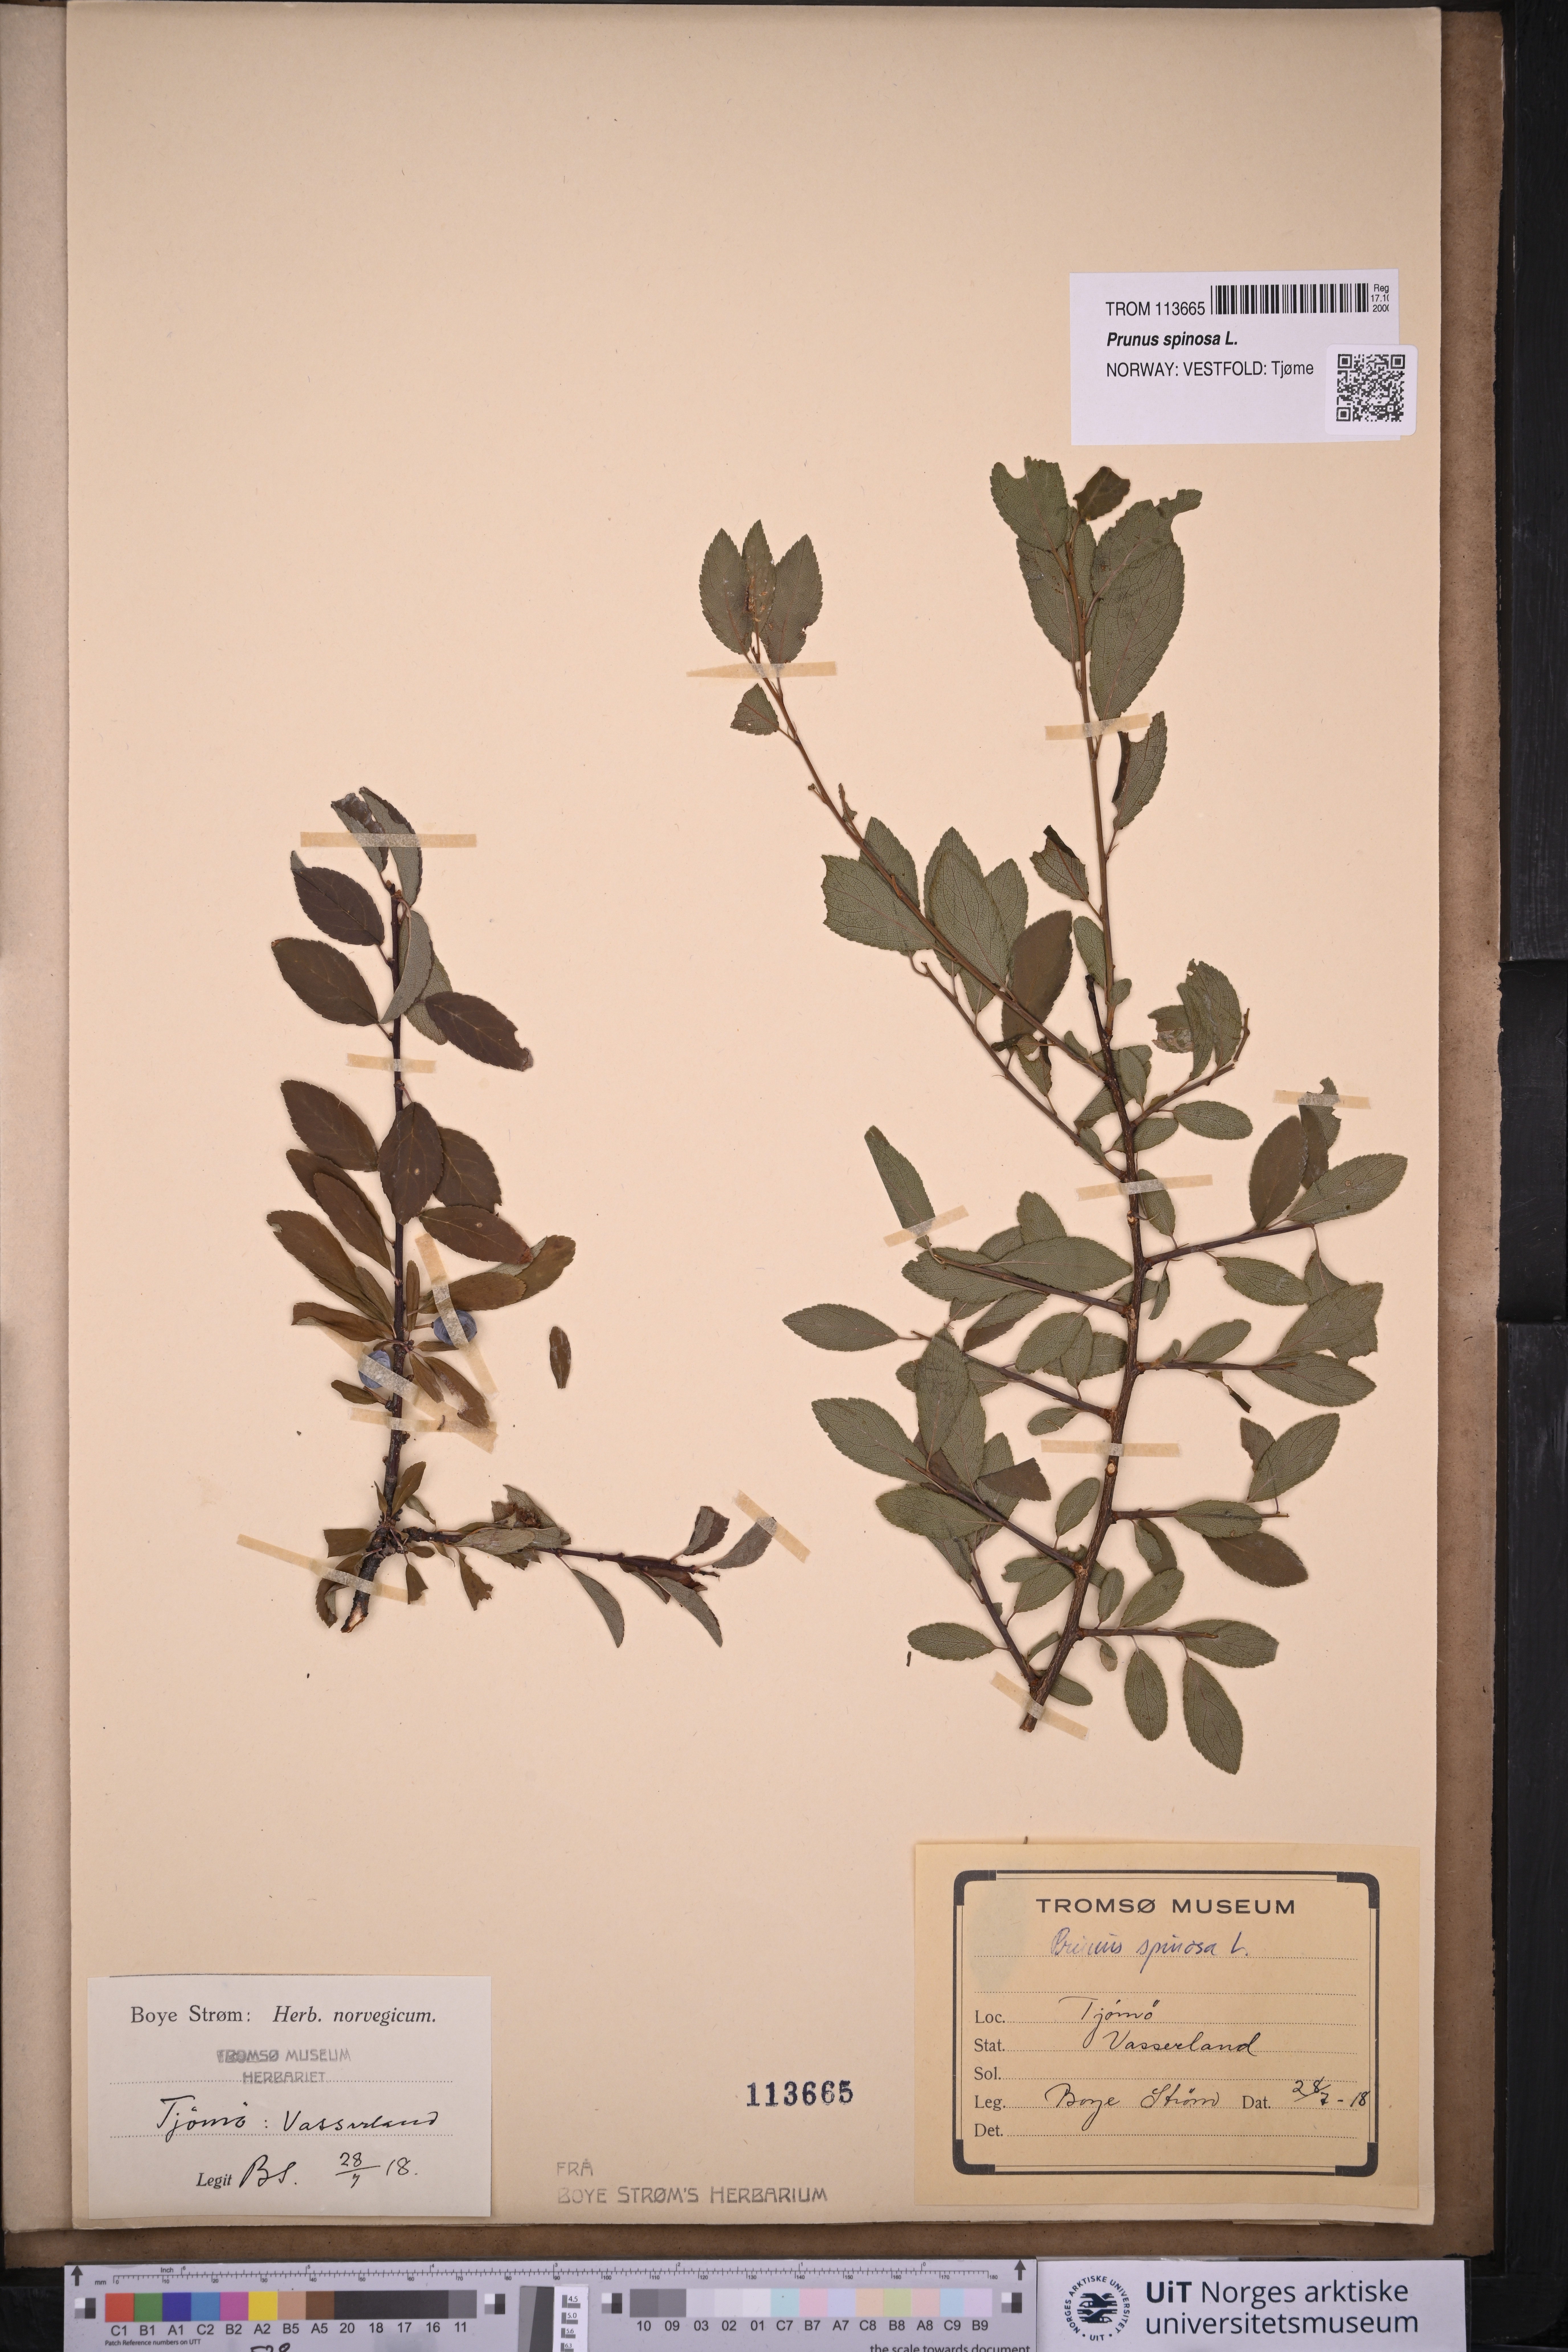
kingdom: Plantae
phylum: Tracheophyta
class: Magnoliopsida
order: Rosales
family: Rosaceae
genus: Prunus
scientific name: Prunus spinosa
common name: Blackthorn
